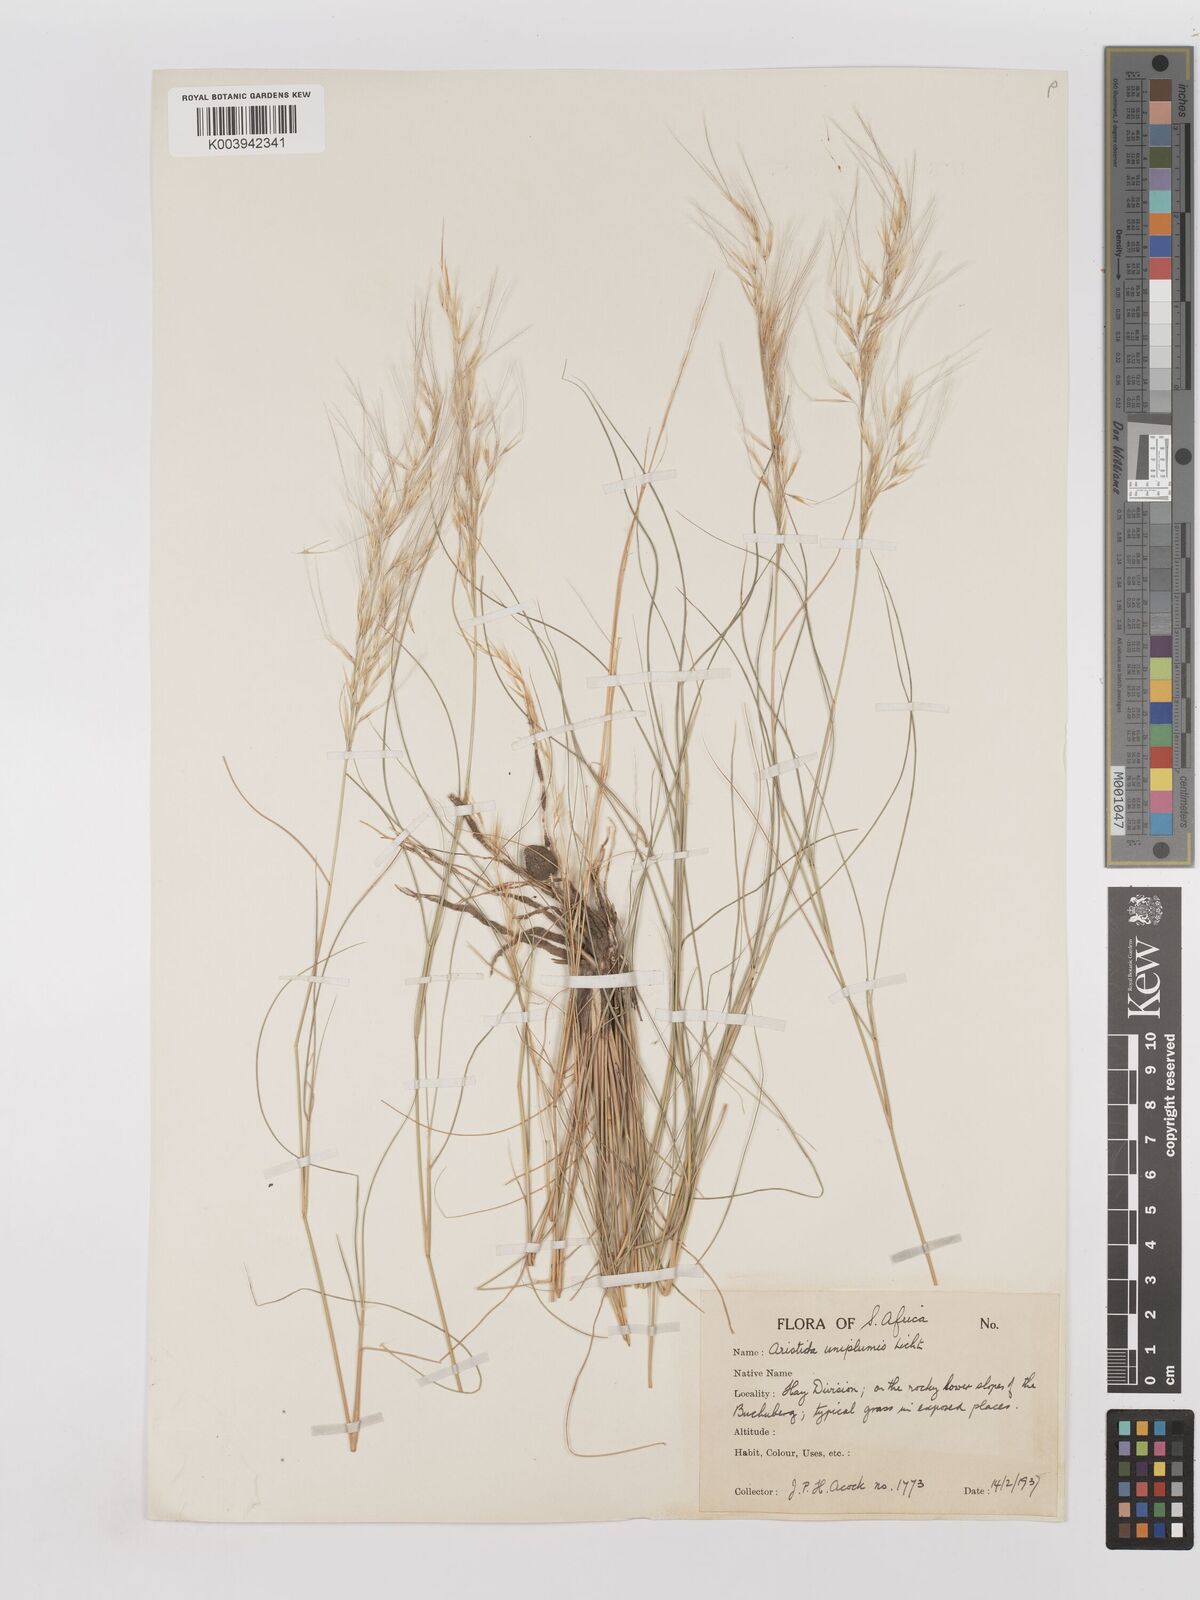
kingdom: Plantae
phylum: Tracheophyta
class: Liliopsida
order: Poales
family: Poaceae
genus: Stipagrostis
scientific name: Stipagrostis uniplumis
